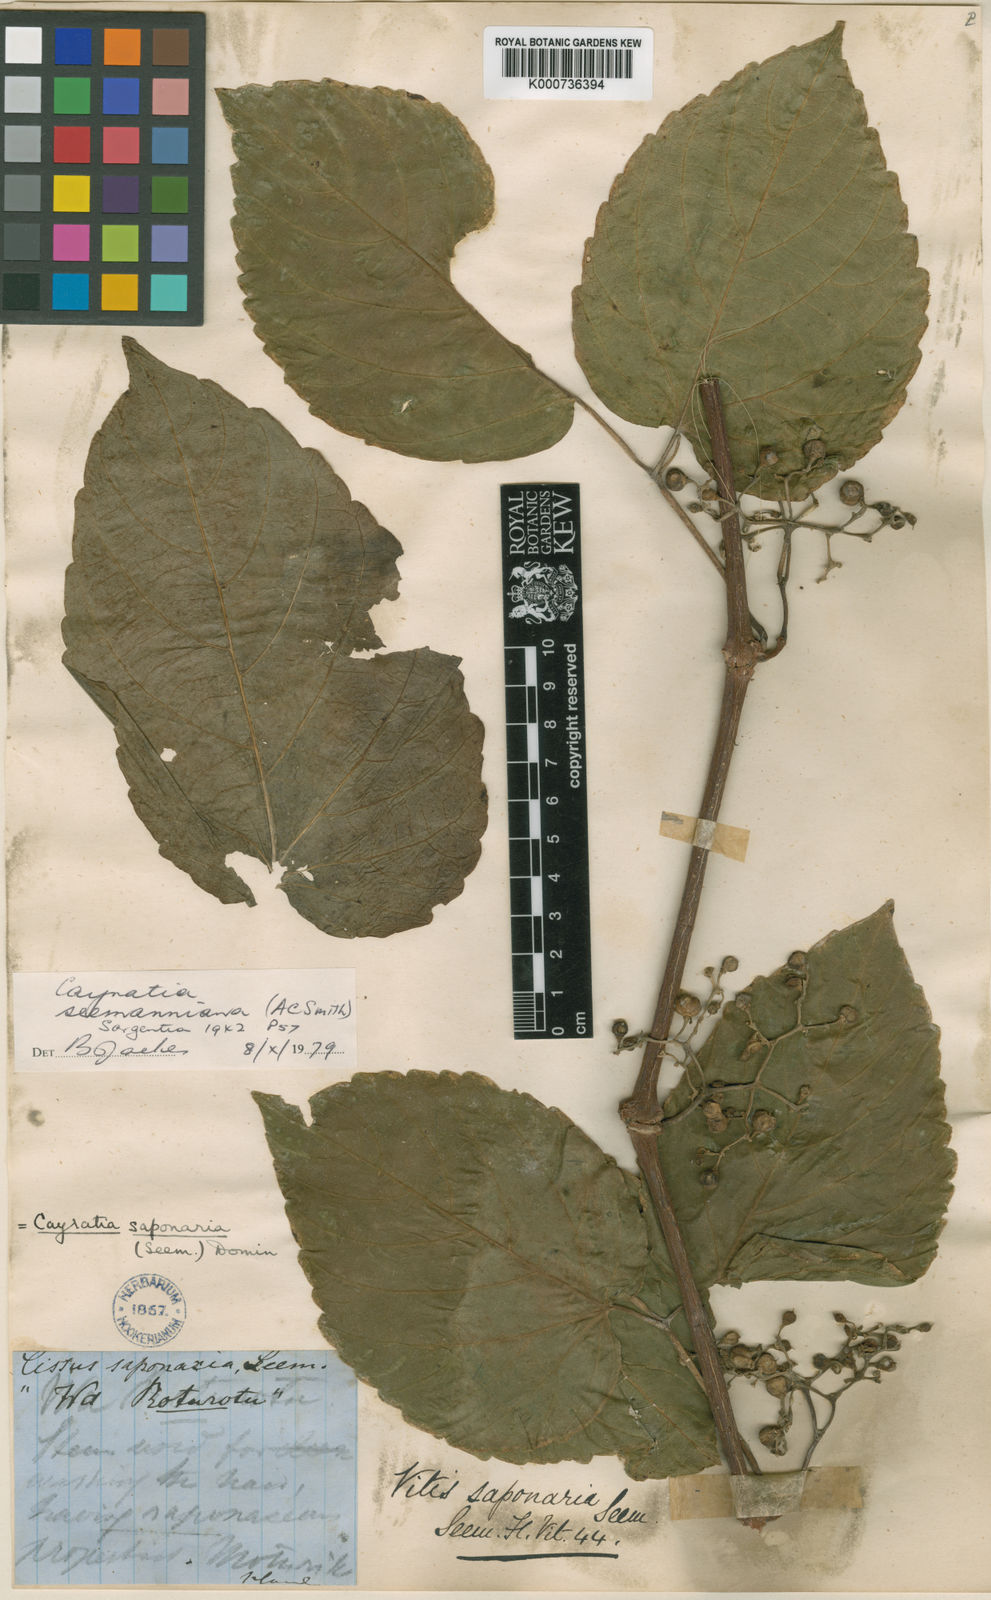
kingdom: Plantae
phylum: Tracheophyta
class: Magnoliopsida
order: Vitales
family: Vitaceae
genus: Cayratia
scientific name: Cayratia seemanniana
